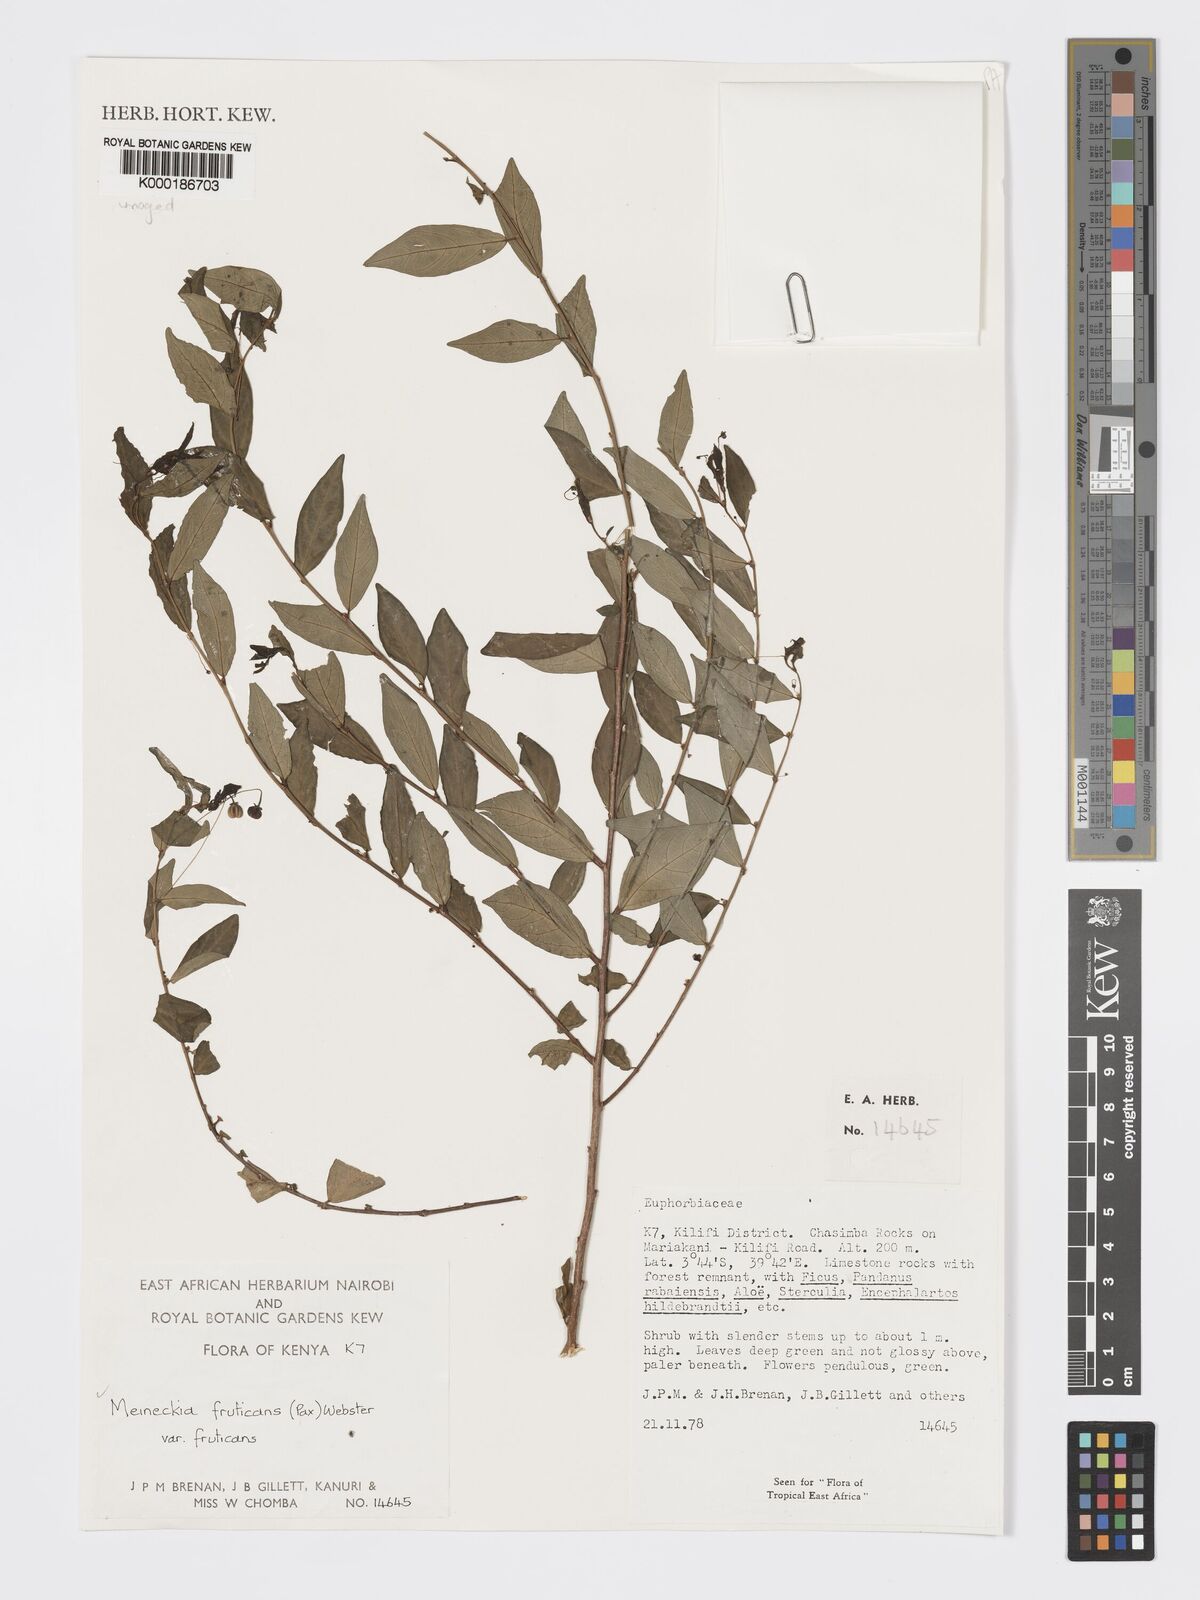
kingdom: Plantae
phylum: Tracheophyta
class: Magnoliopsida
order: Malpighiales
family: Phyllanthaceae
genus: Meineckia
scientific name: Meineckia fruticans
